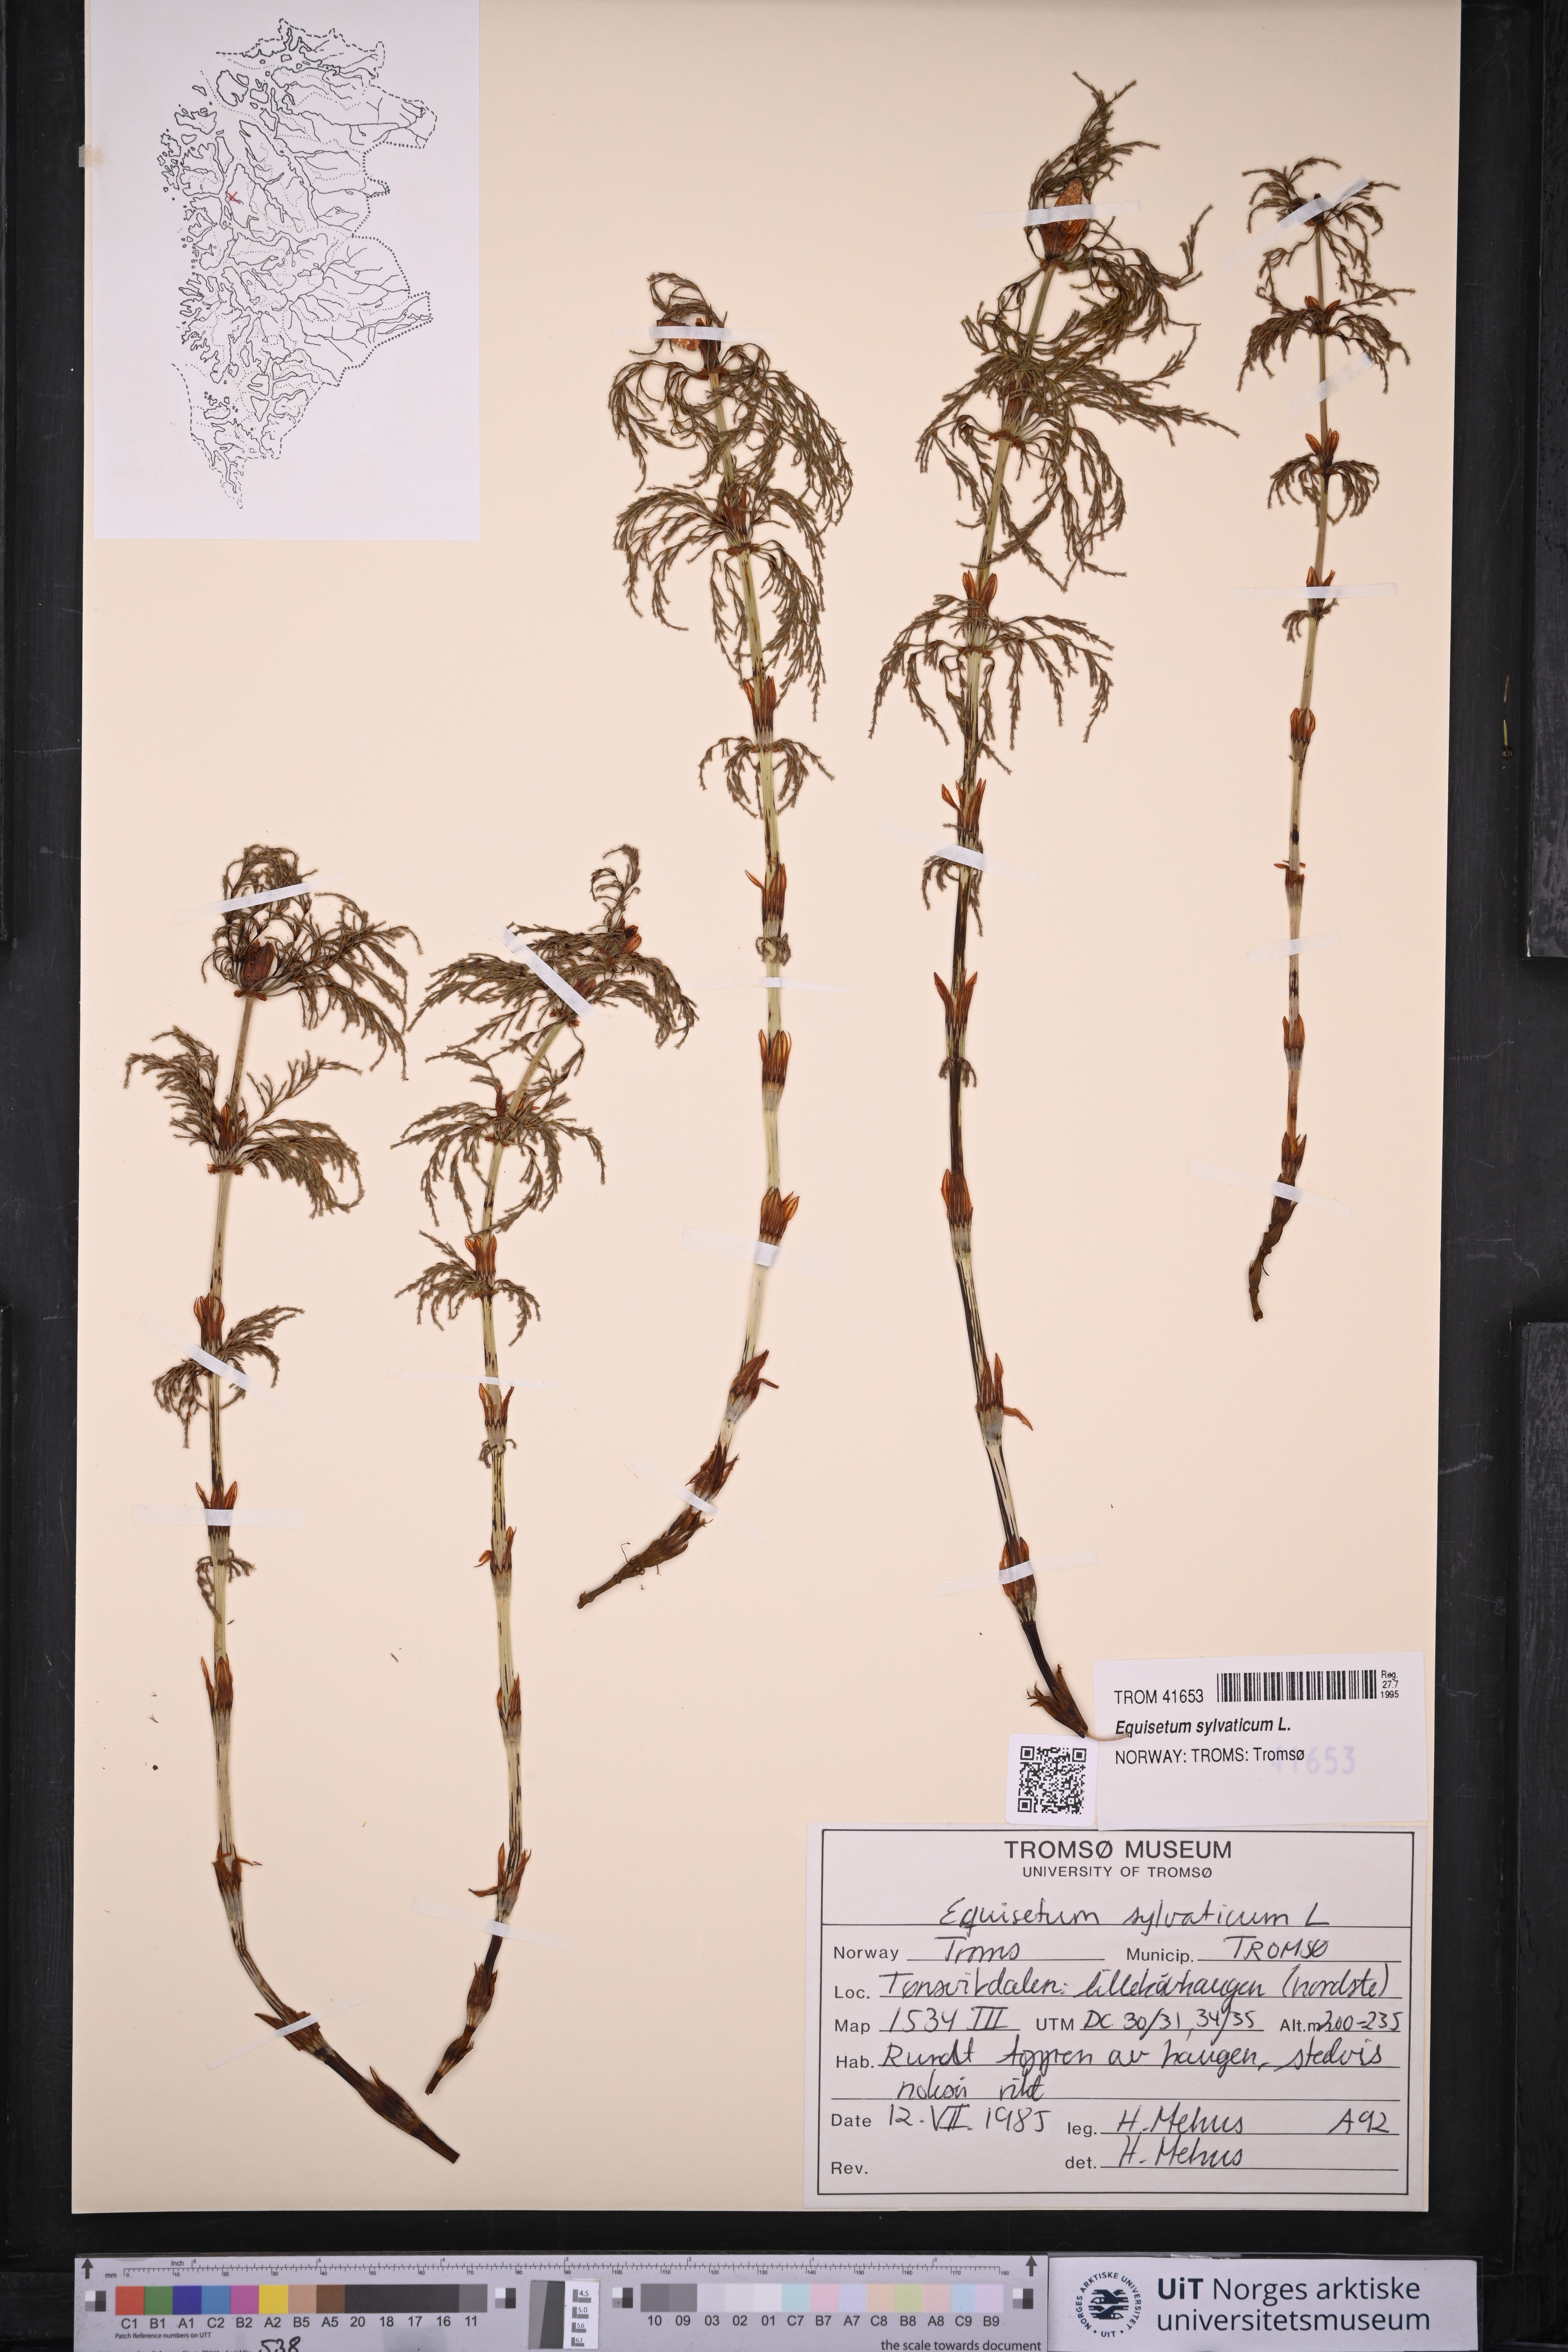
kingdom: Plantae
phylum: Tracheophyta
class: Polypodiopsida
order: Equisetales
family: Equisetaceae
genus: Equisetum
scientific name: Equisetum sylvaticum
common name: Wood horsetail
